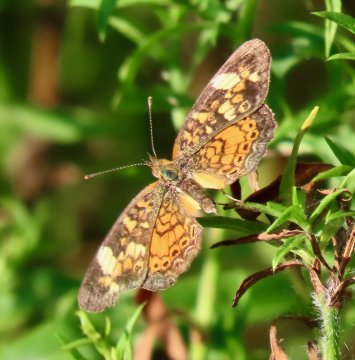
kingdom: Animalia
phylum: Arthropoda
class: Insecta
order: Lepidoptera
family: Nymphalidae
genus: Phyciodes
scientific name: Phyciodes tharos
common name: Pearl Crescent
